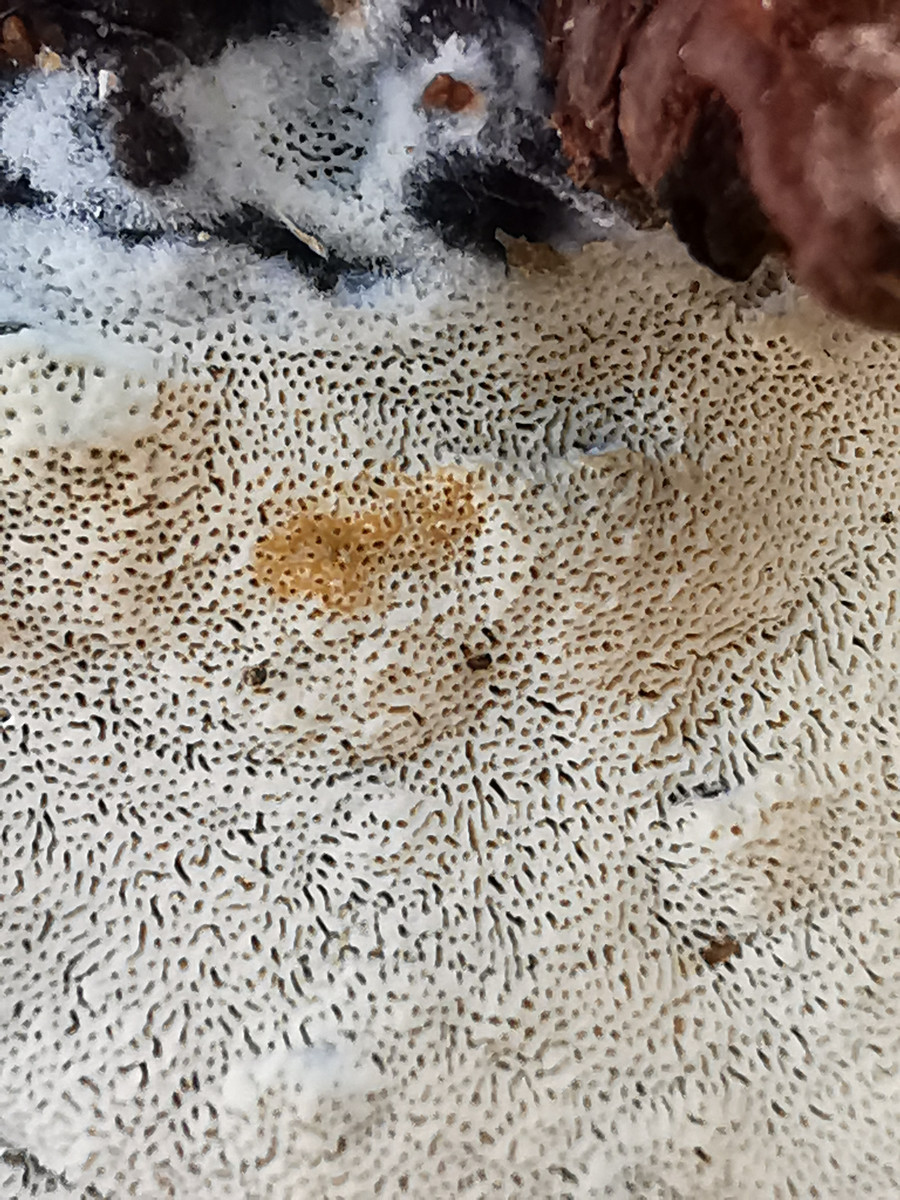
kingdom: Fungi
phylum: Basidiomycota
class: Agaricomycetes
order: Polyporales
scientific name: Polyporales
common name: poresvampordenen
